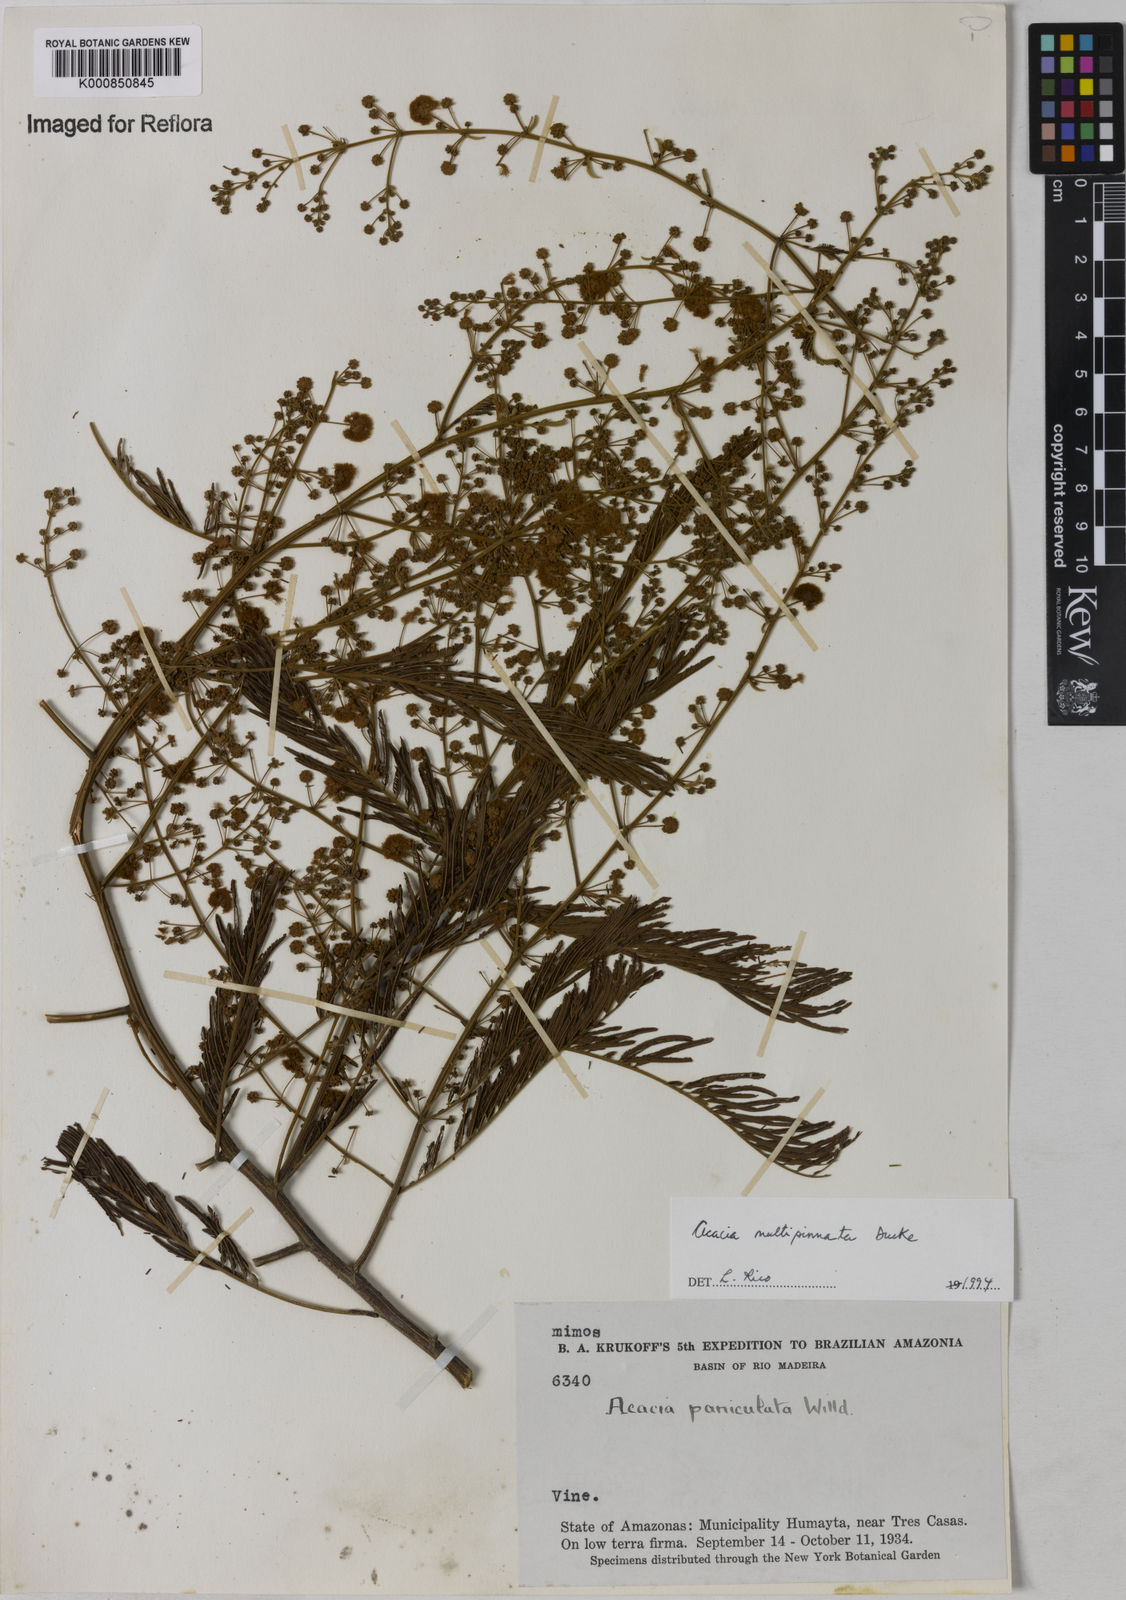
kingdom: Plantae
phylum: Tracheophyta
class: Magnoliopsida
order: Fabales
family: Fabaceae
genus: Senegalia
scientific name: Senegalia paniculata
